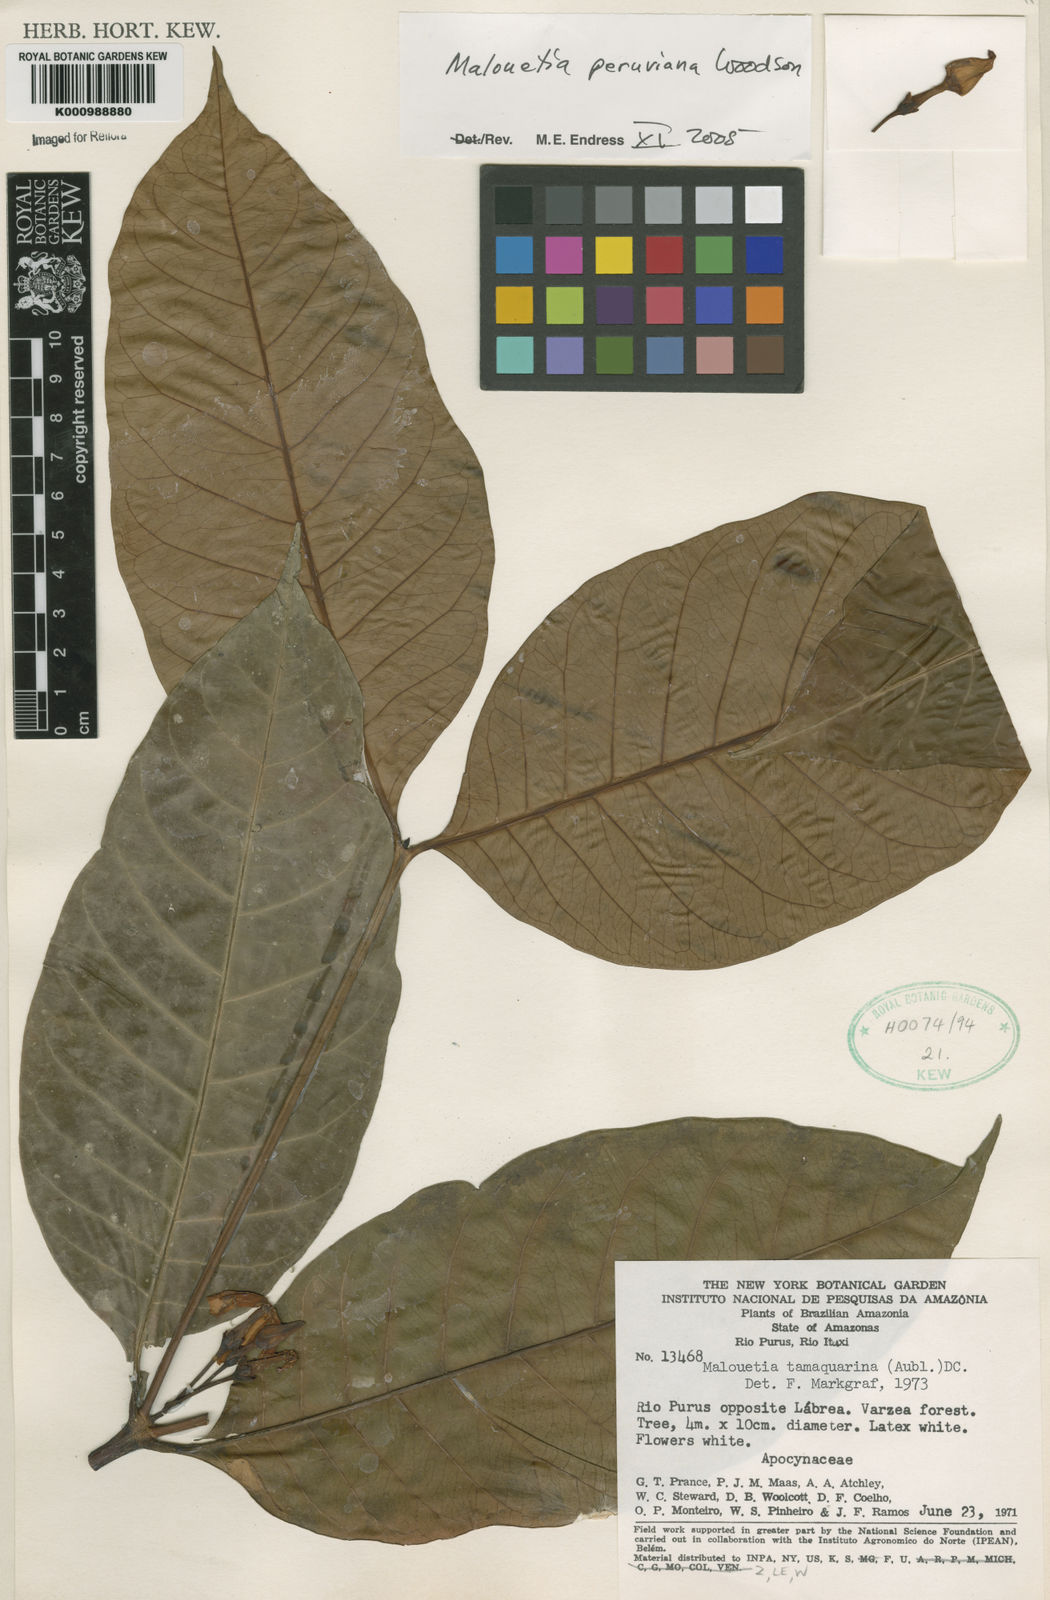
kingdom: Plantae
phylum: Tracheophyta
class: Magnoliopsida
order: Gentianales
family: Apocynaceae
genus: Malouetia
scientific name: Malouetia tamaquarina
